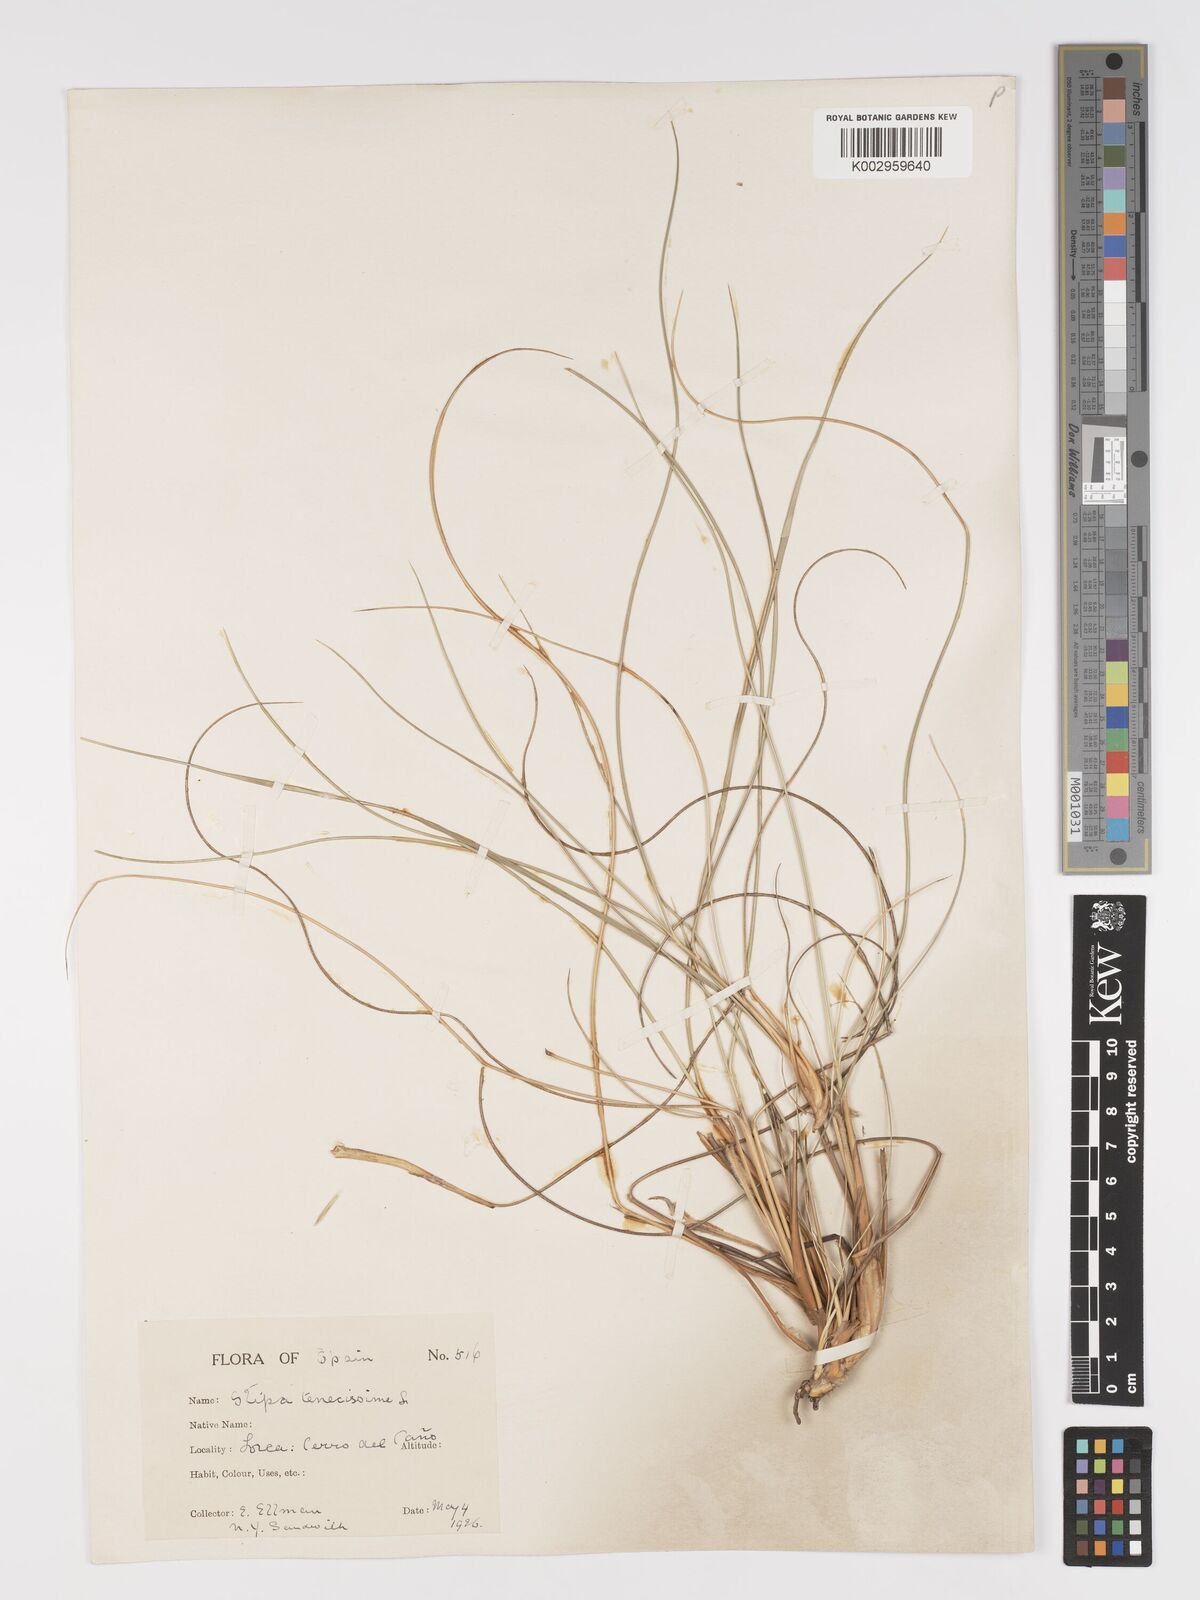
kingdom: Plantae
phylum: Tracheophyta
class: Liliopsida
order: Poales
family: Poaceae
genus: Macrochloa
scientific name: Macrochloa tenacissima
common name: Alfa grass
